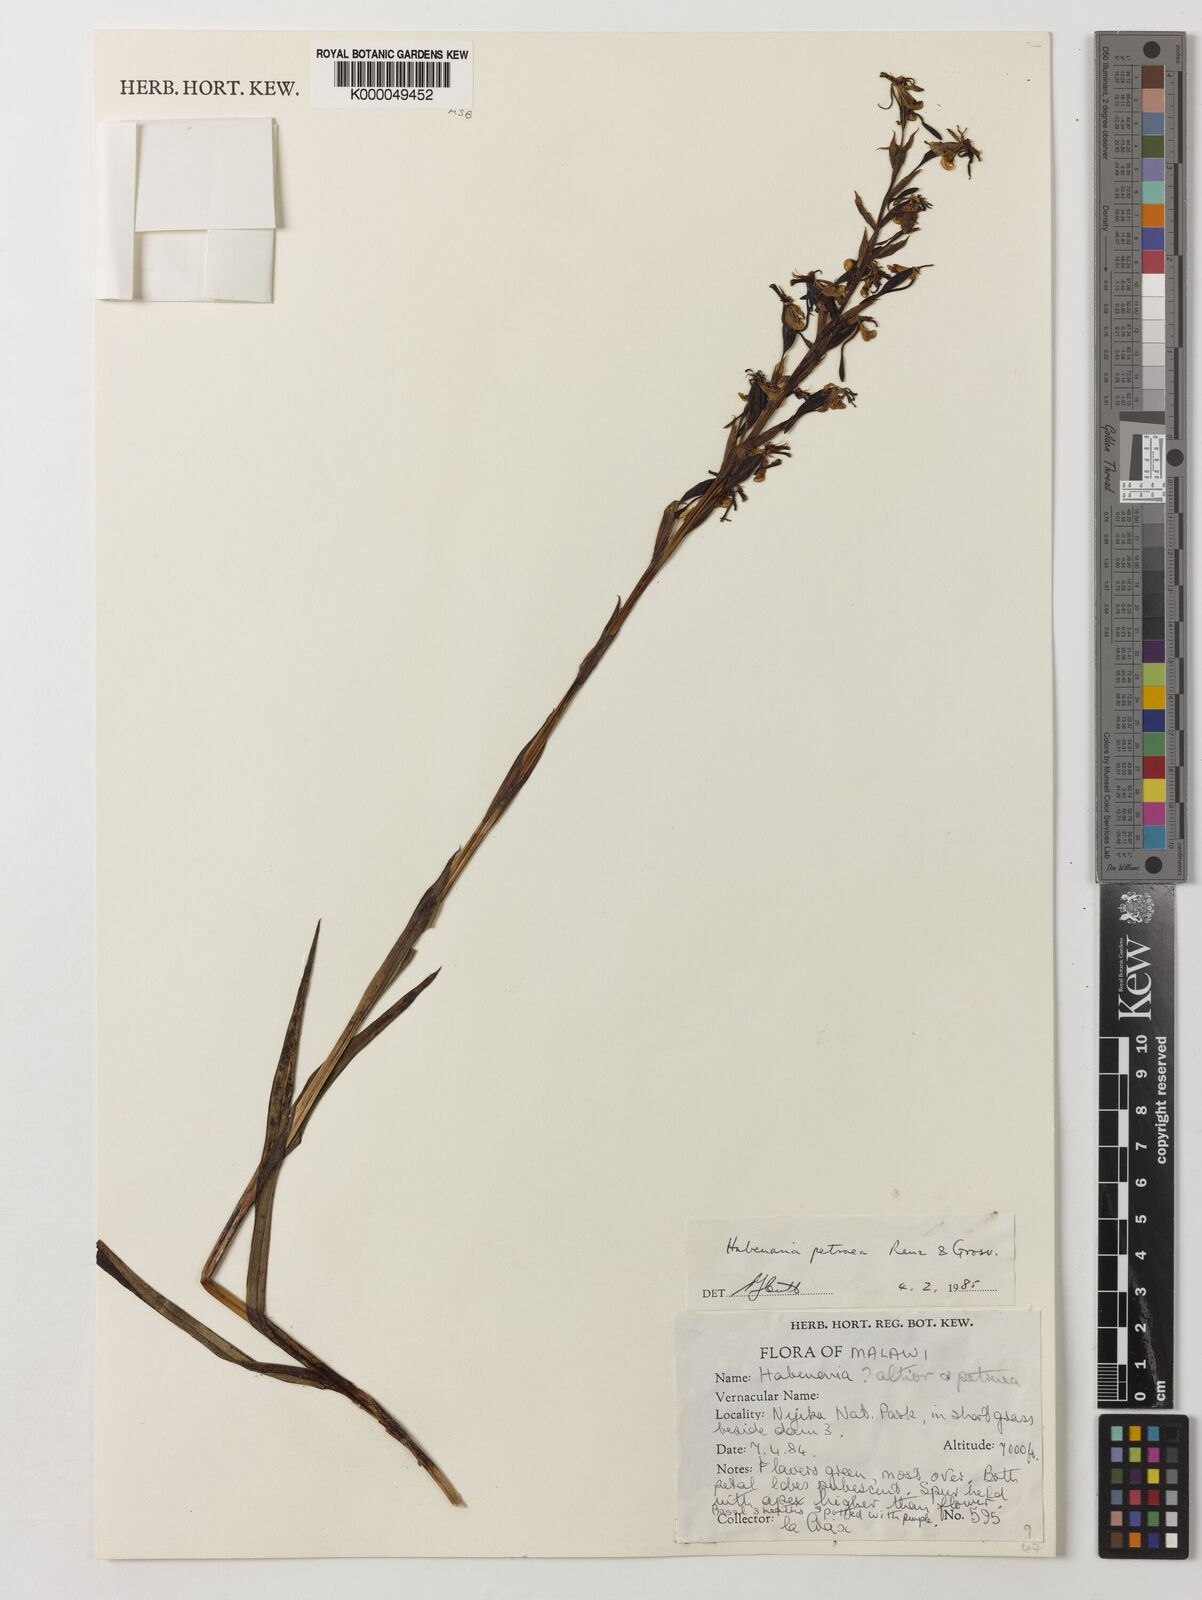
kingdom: Plantae
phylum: Tracheophyta
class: Liliopsida
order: Asparagales
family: Orchidaceae
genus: Habenaria
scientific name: Habenaria petraea
